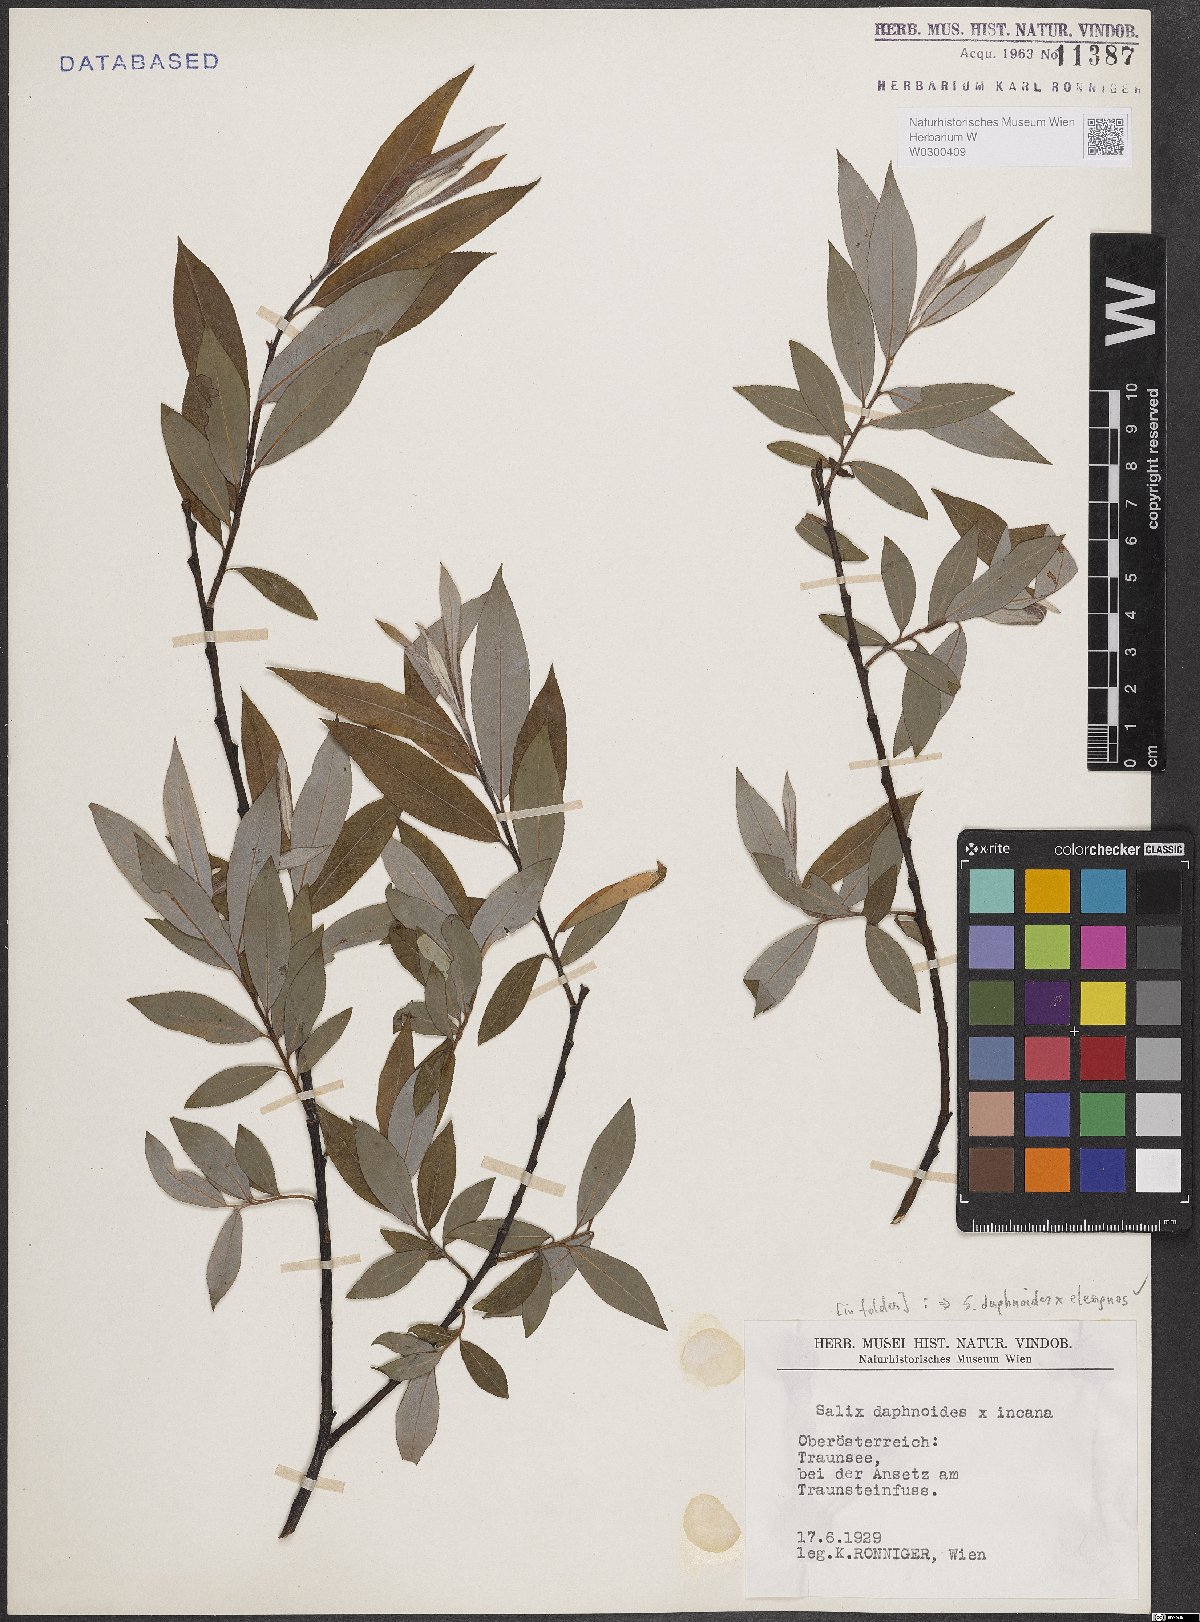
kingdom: Plantae
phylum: Tracheophyta
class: Magnoliopsida
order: Malpighiales
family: Salicaceae
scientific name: Salicaceae
